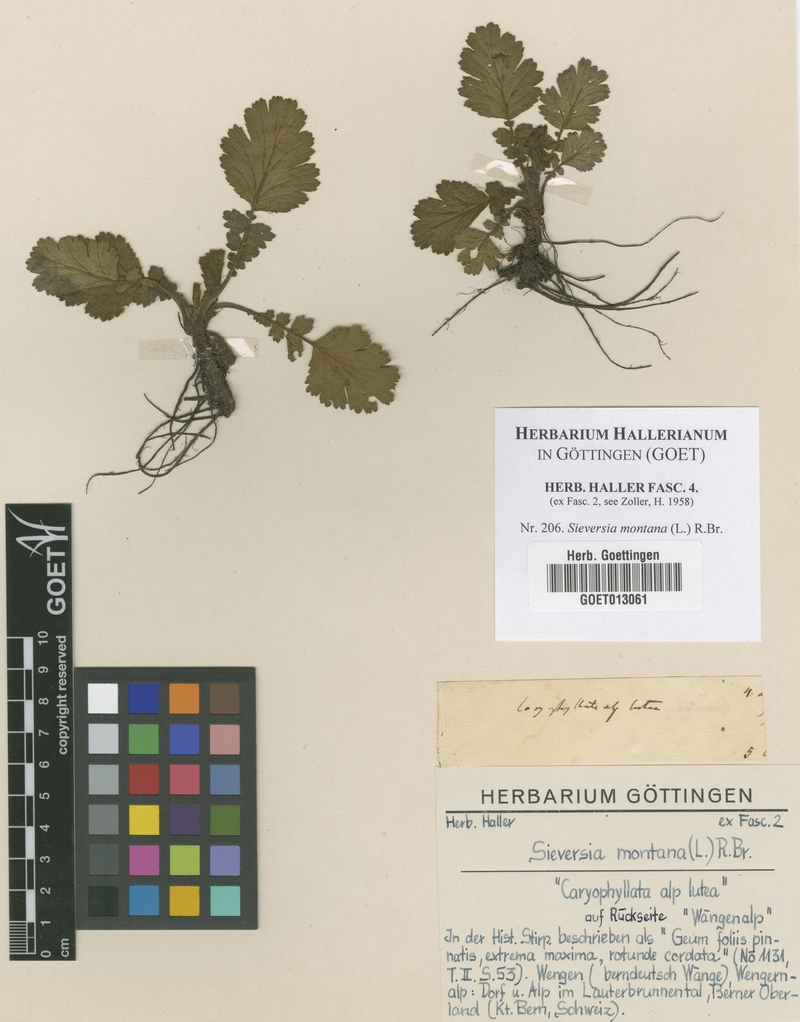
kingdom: Plantae
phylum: Tracheophyta
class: Magnoliopsida
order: Rosales
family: Rosaceae
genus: Geum
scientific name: Geum montanum
